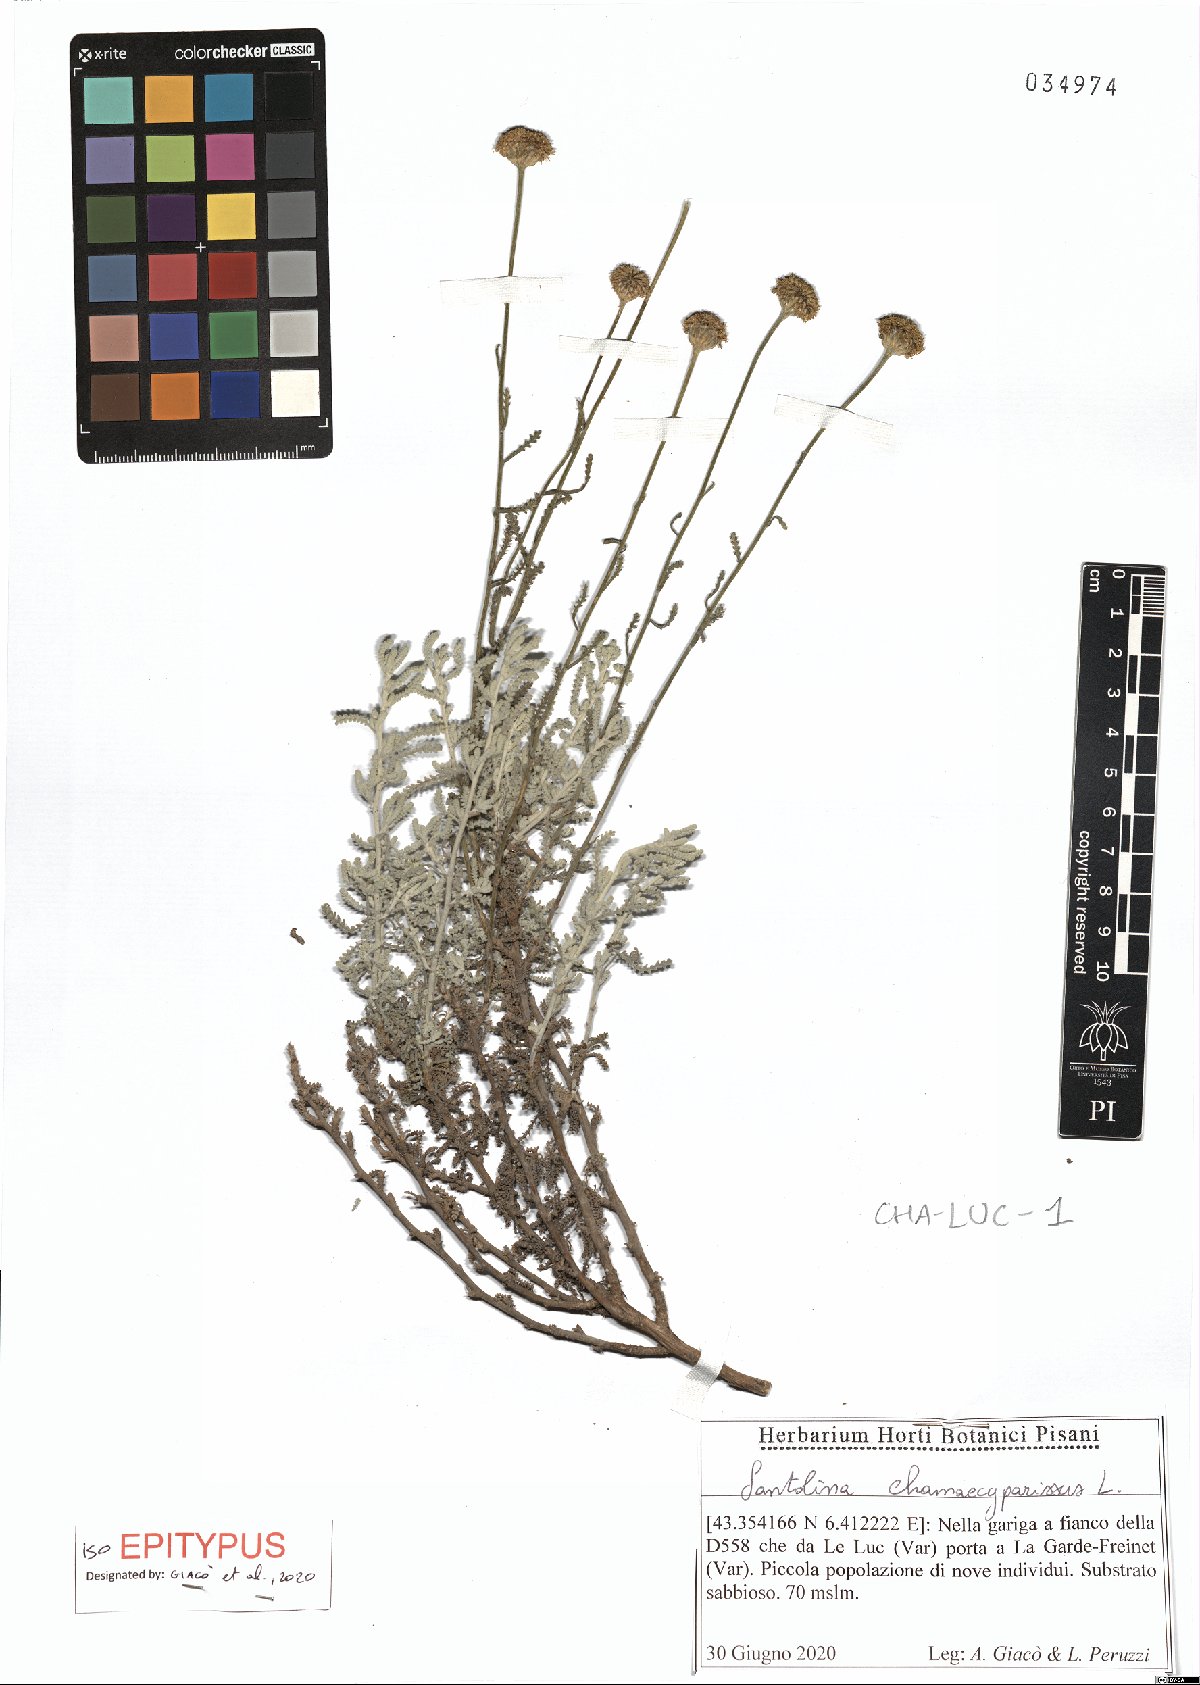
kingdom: Plantae
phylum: Tracheophyta
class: Magnoliopsida
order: Asterales
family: Asteraceae
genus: Santolina
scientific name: Santolina chamaecyparissus
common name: Lavender-cotton
